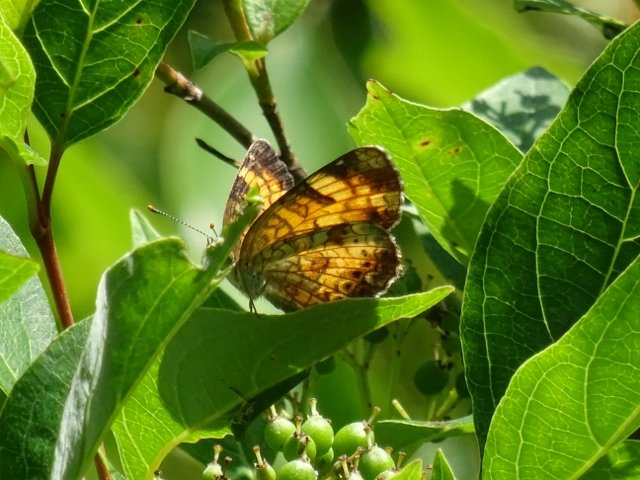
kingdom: Animalia
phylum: Arthropoda
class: Insecta
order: Lepidoptera
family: Nymphalidae
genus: Phyciodes
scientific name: Phyciodes tharos
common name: Northern Crescent
